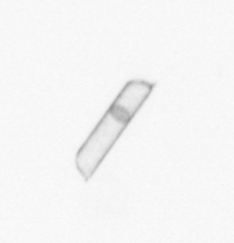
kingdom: Chromista
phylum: Ochrophyta
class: Bacillariophyceae
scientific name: Bacillariophyceae
